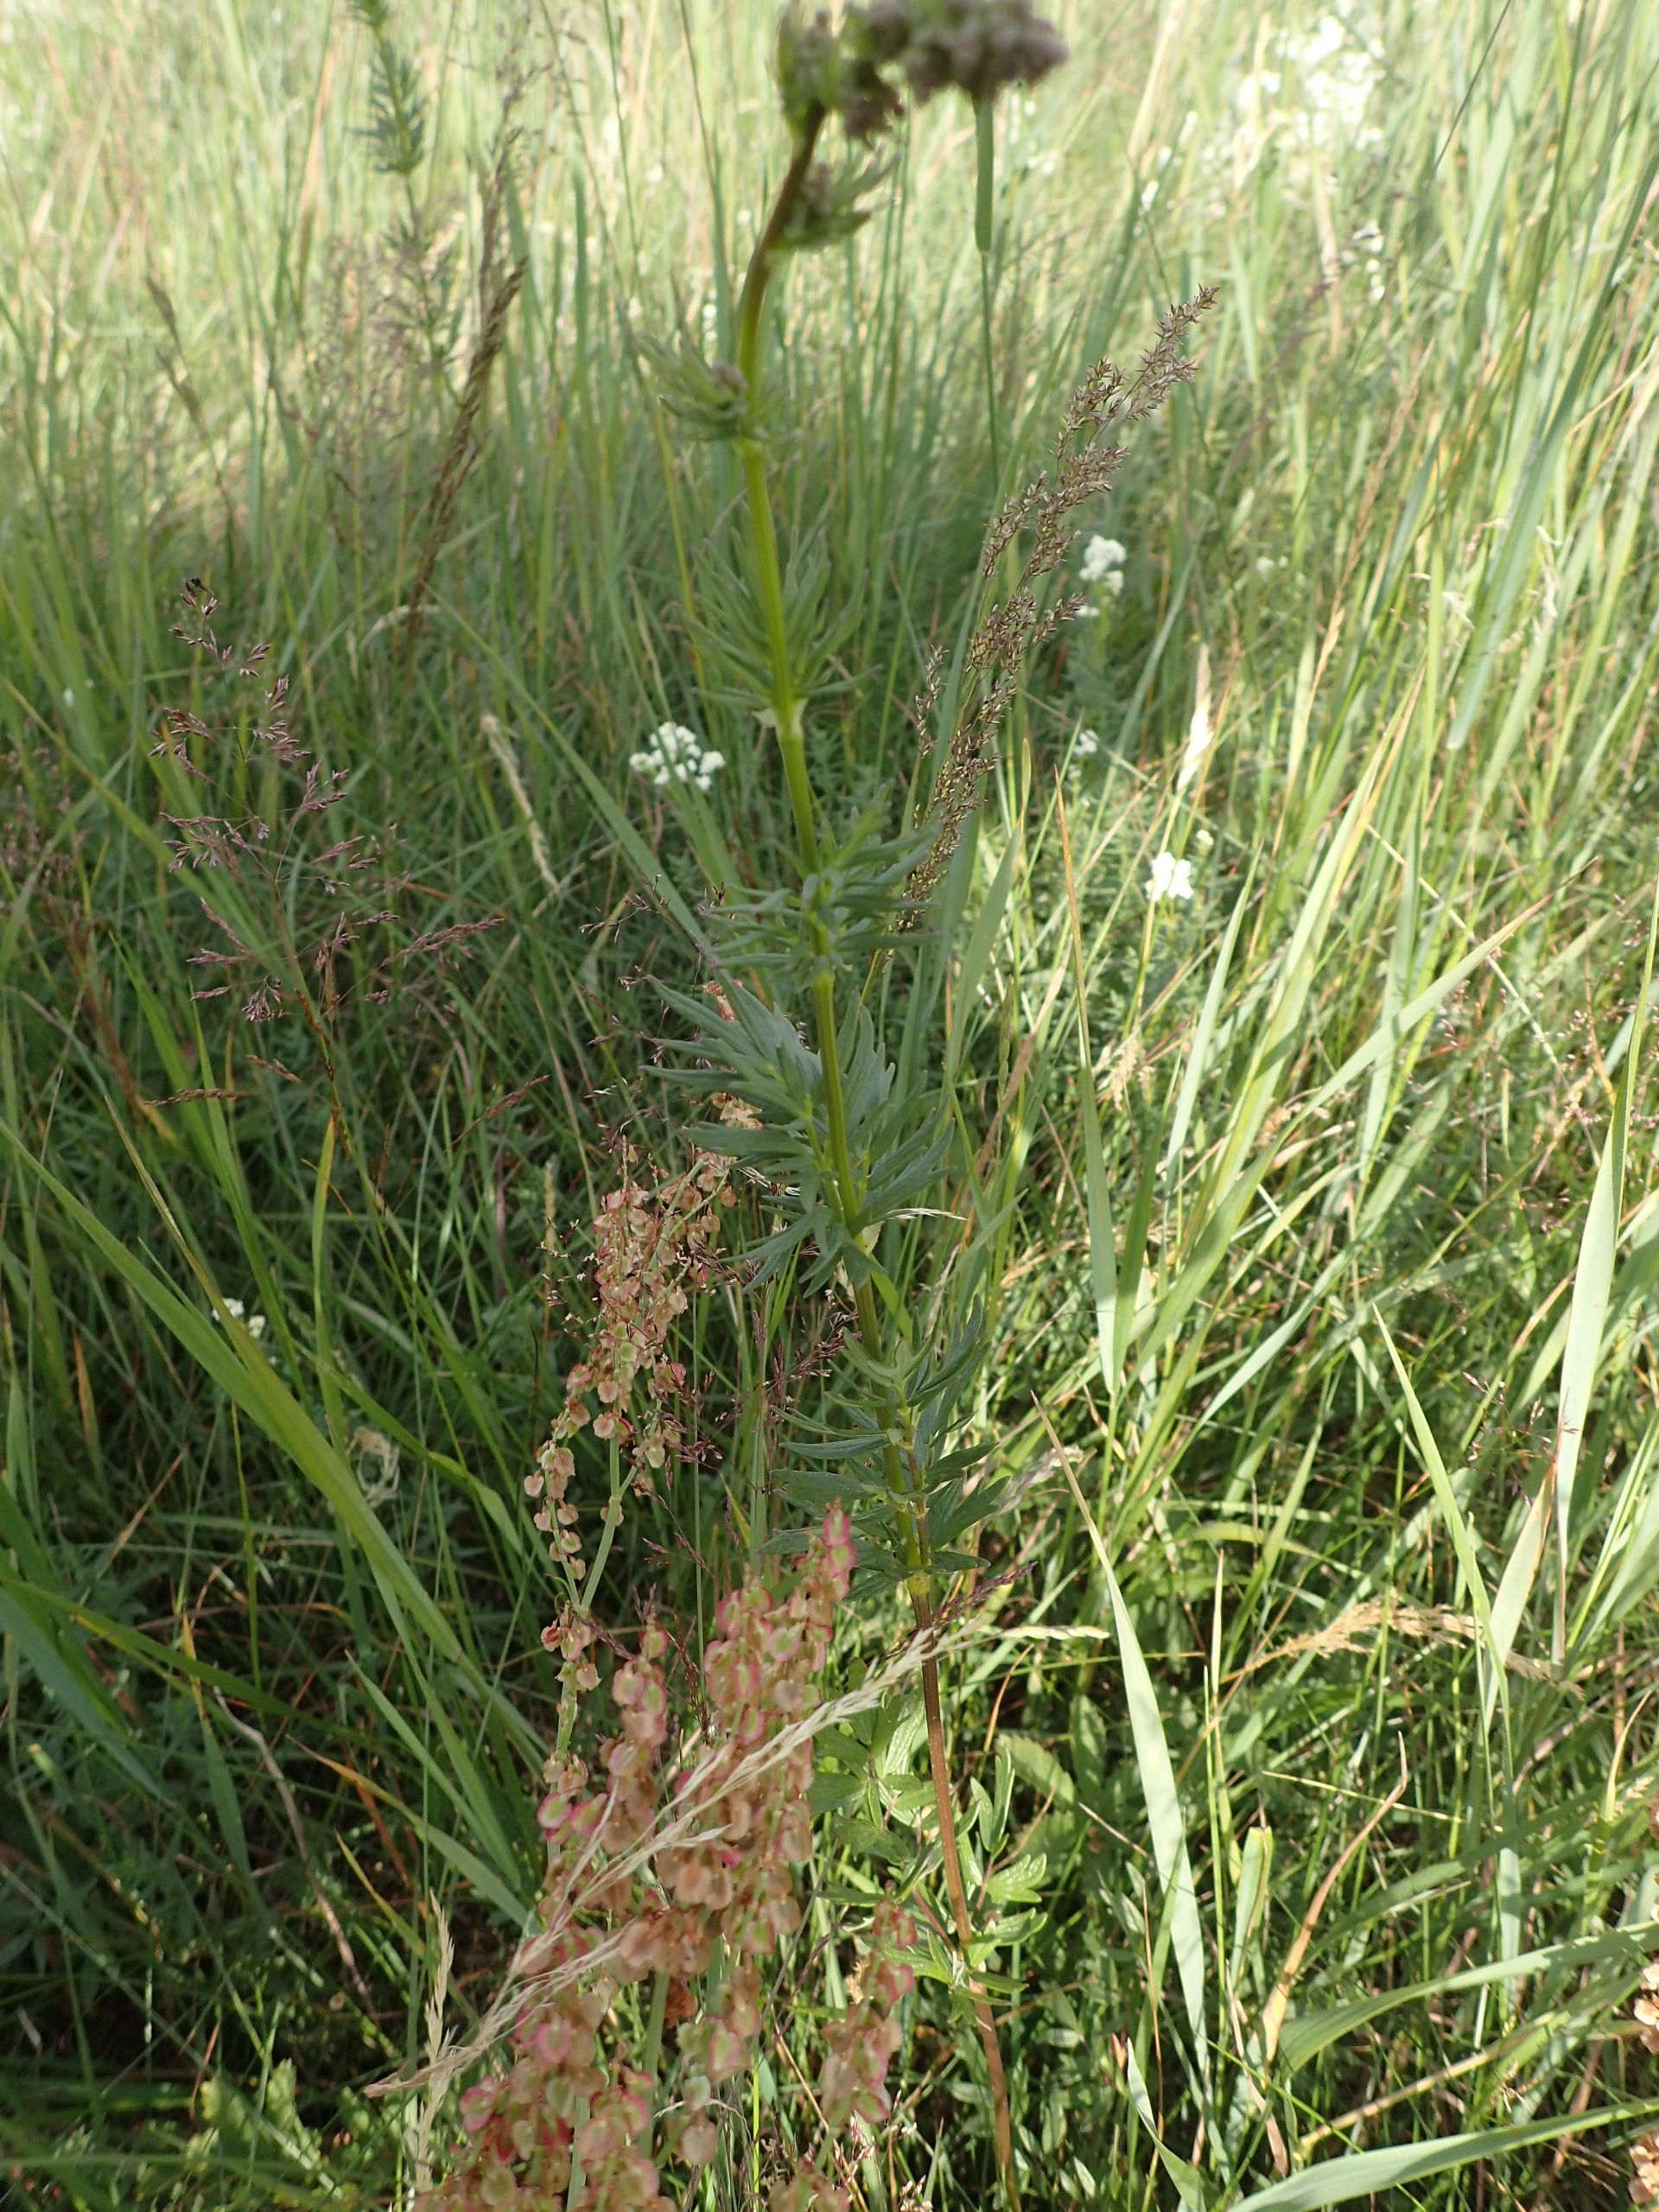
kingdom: Plantae
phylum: Tracheophyta
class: Magnoliopsida
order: Ranunculales
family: Ranunculaceae
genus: Thalictrum
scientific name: Thalictrum simplex
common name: Rank frøstjerne
